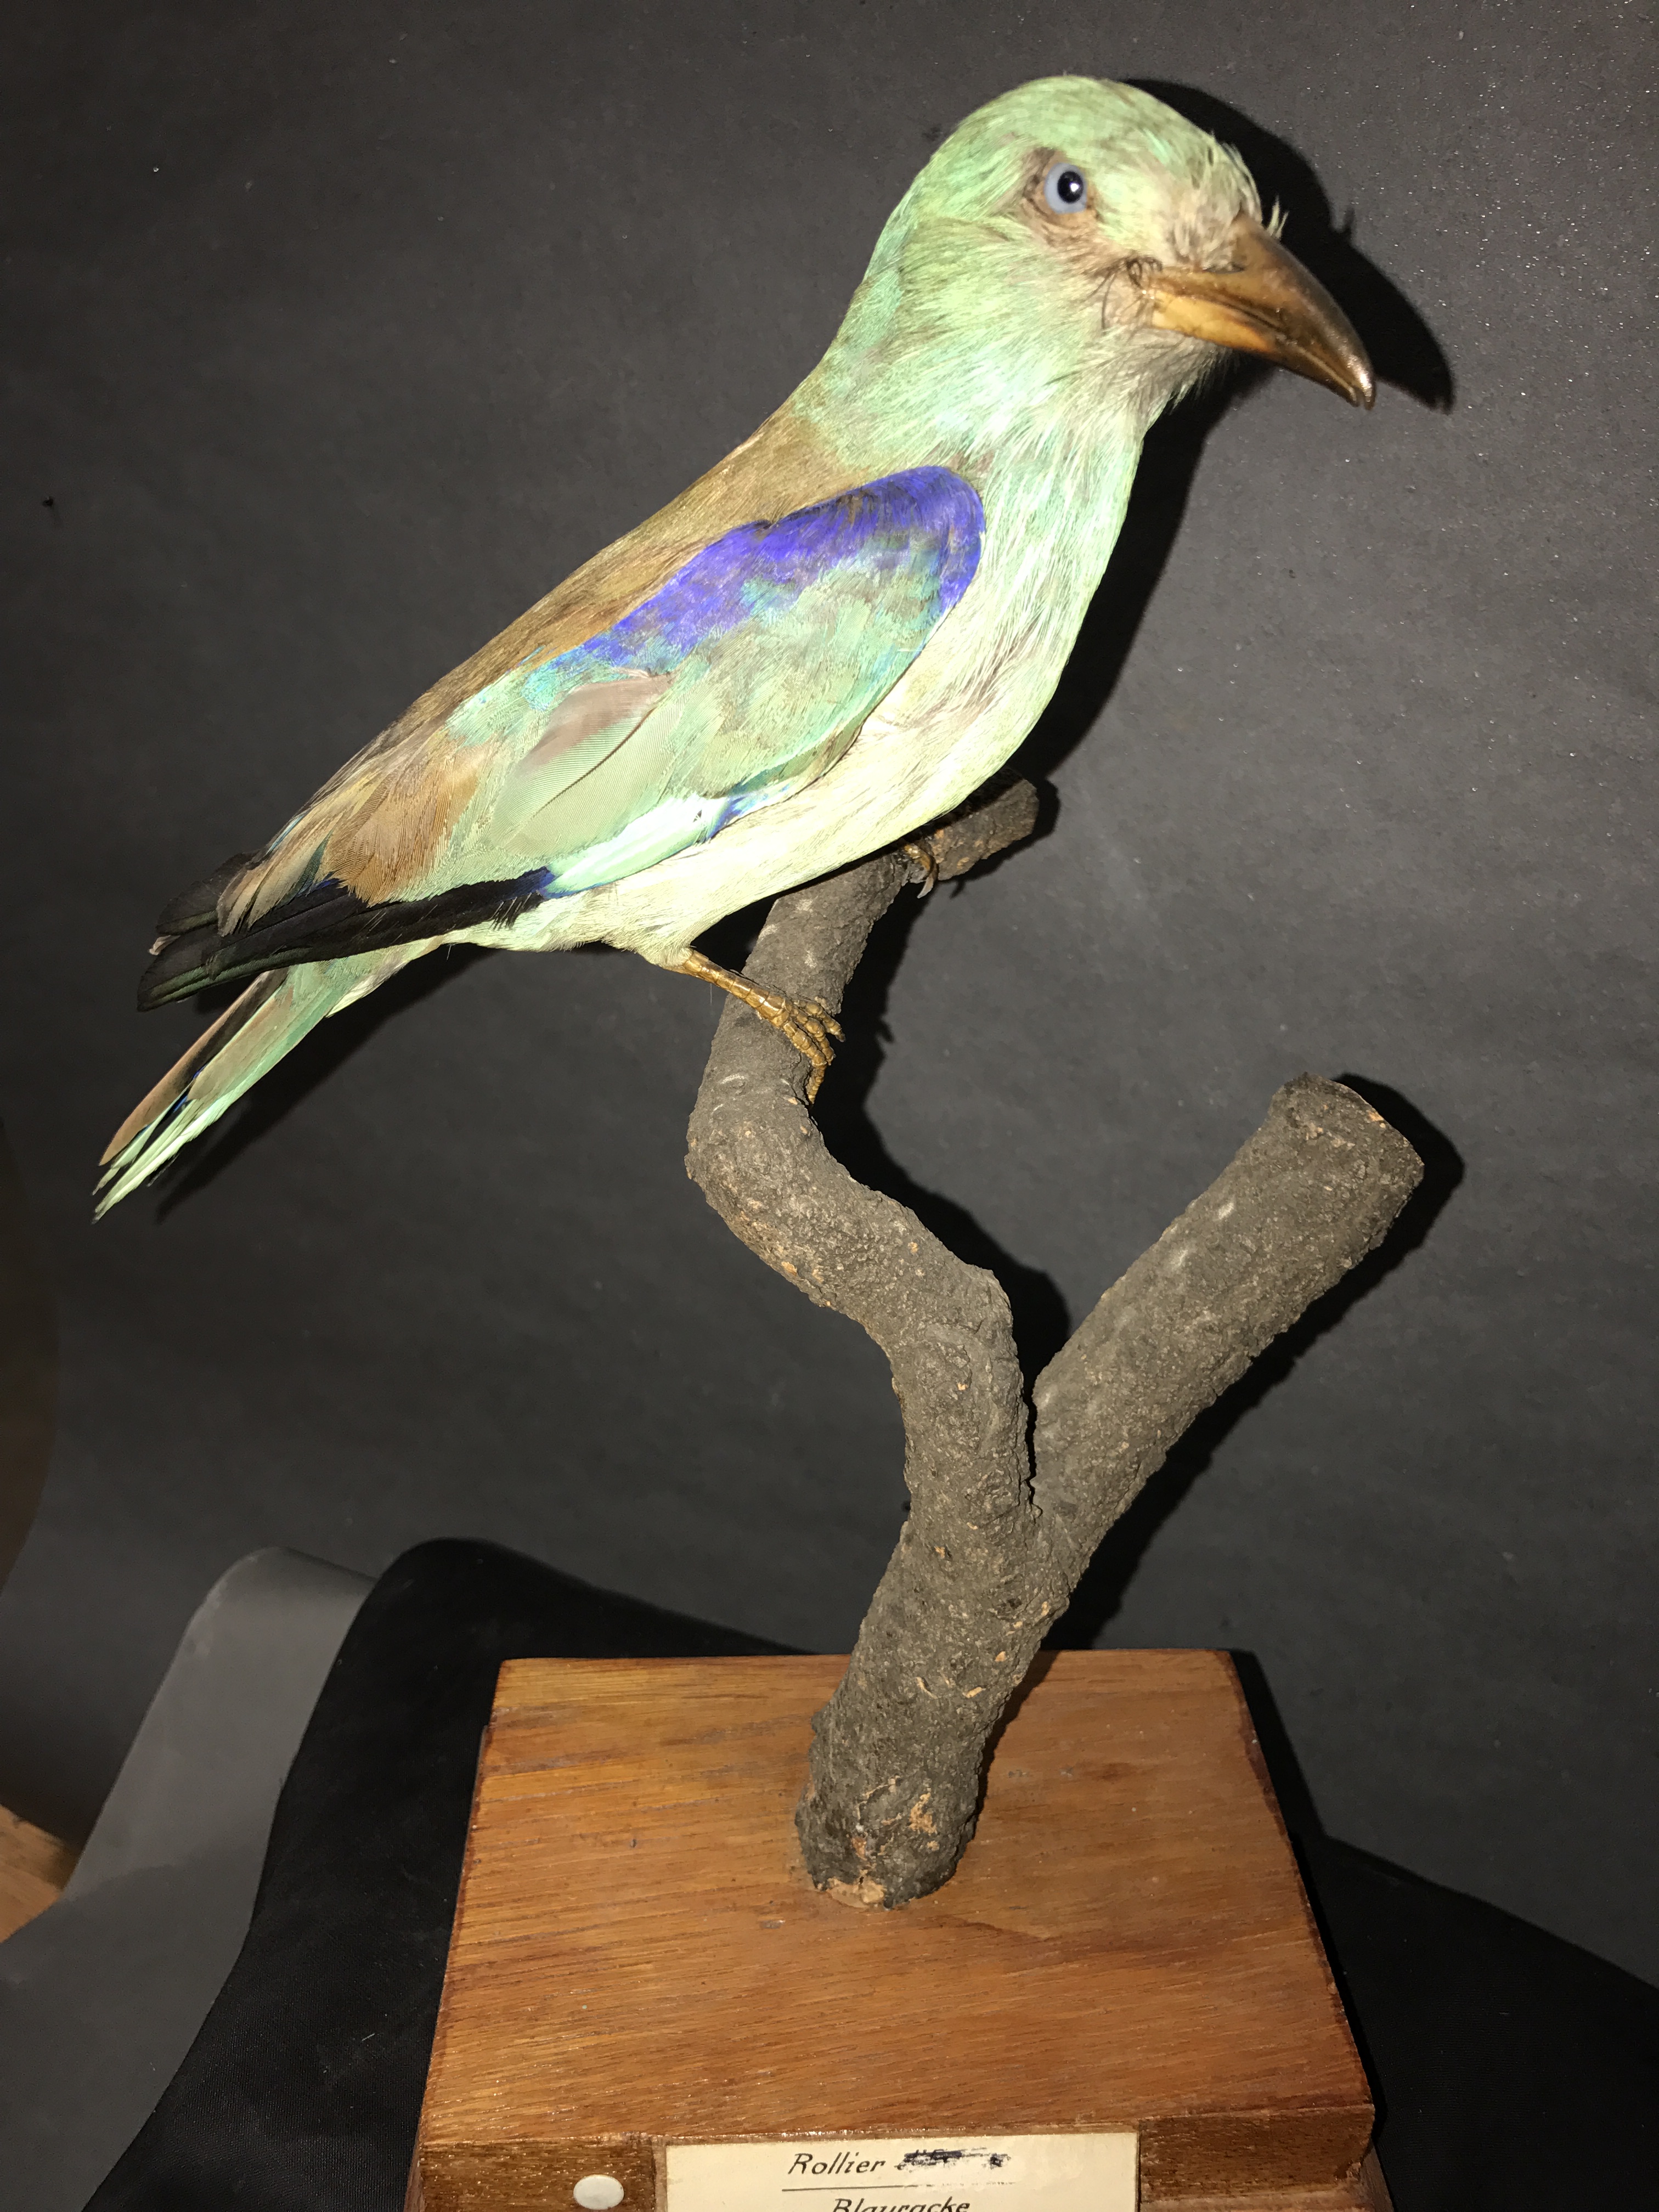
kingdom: Animalia
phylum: Chordata
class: Aves
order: Coraciiformes
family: Coraciidae
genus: Coracias
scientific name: Coracias garrulus
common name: European roller
